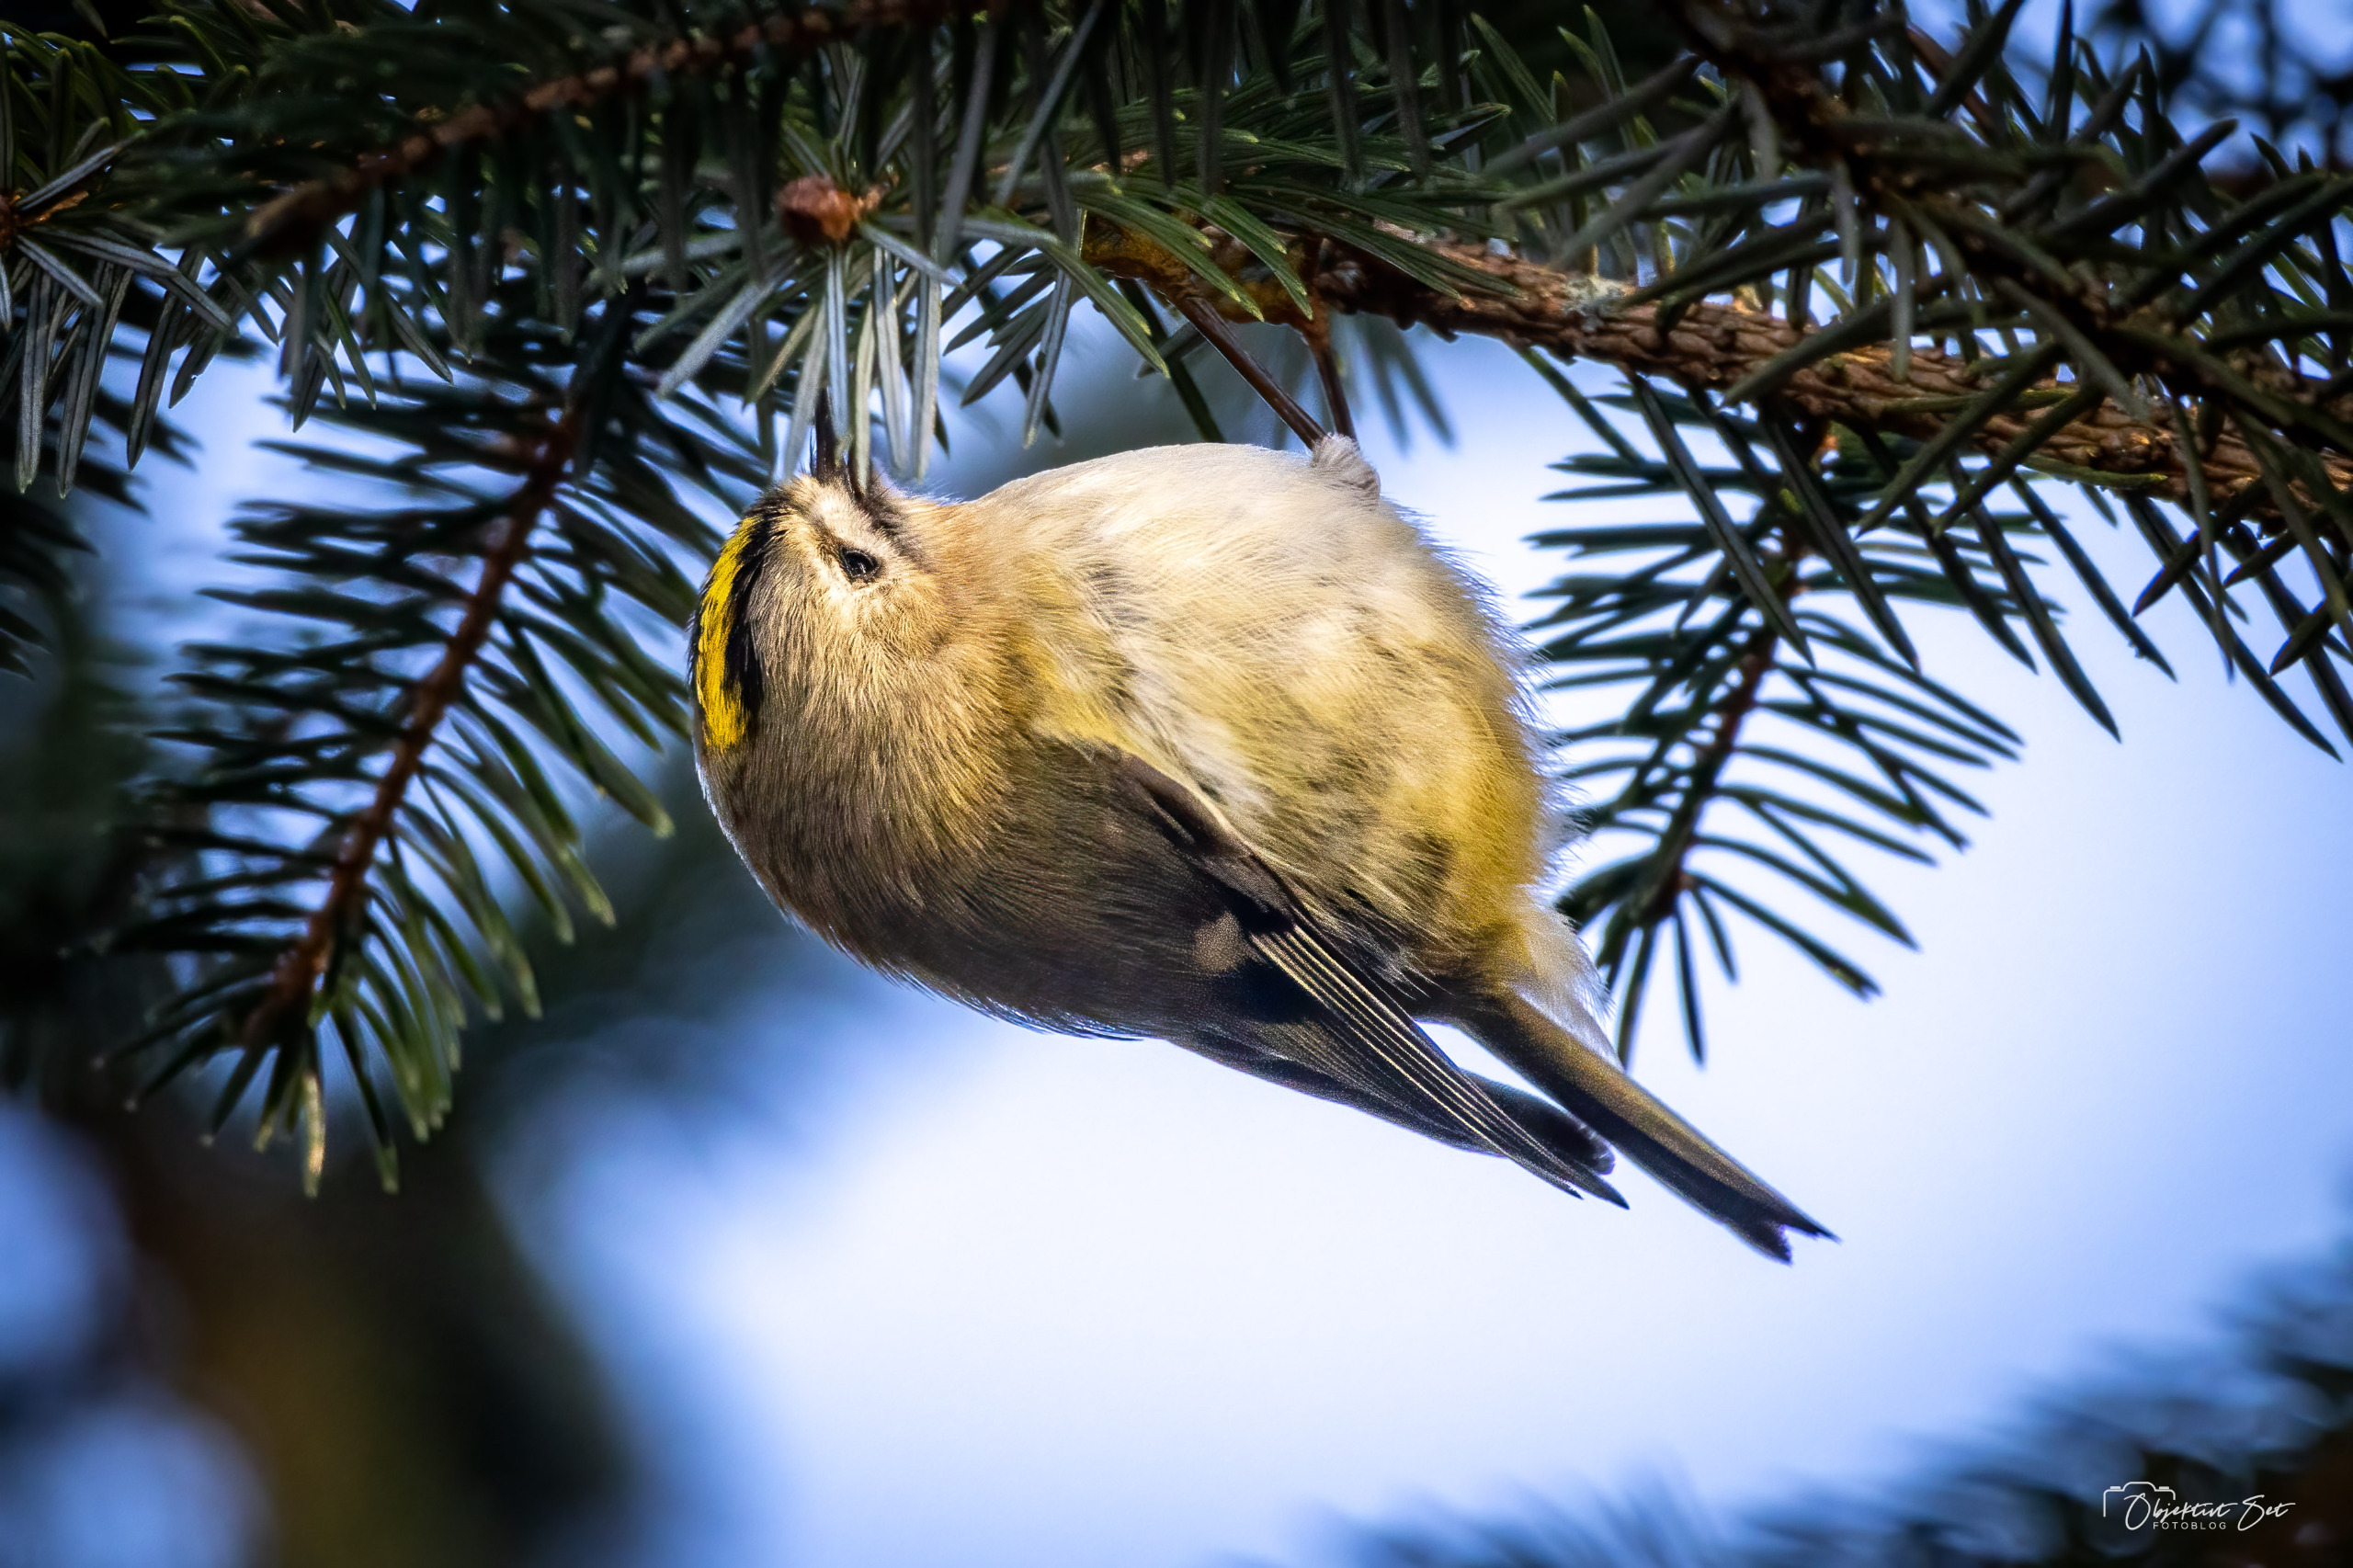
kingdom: Animalia
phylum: Chordata
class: Aves
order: Passeriformes
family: Regulidae
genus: Regulus
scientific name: Regulus regulus
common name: Fuglekonge
